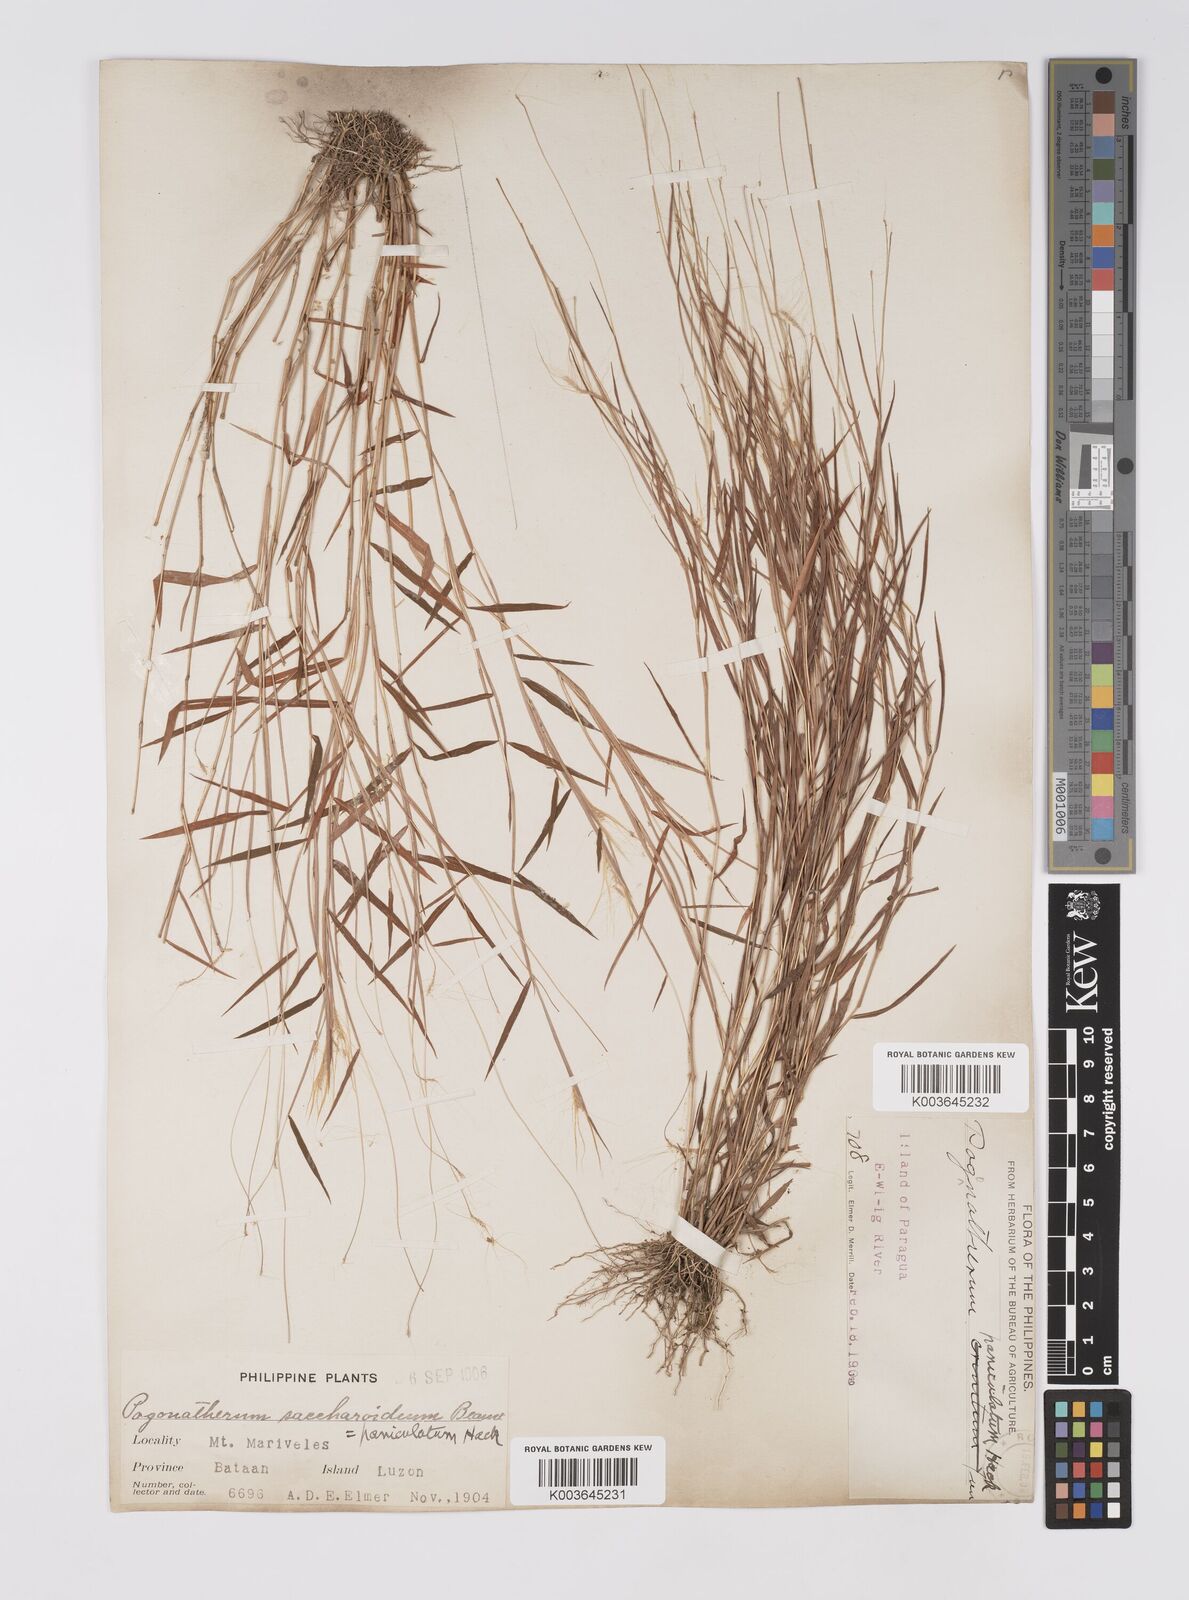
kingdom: Plantae
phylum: Tracheophyta
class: Liliopsida
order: Poales
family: Poaceae
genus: Pogonatherum
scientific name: Pogonatherum crinitum
